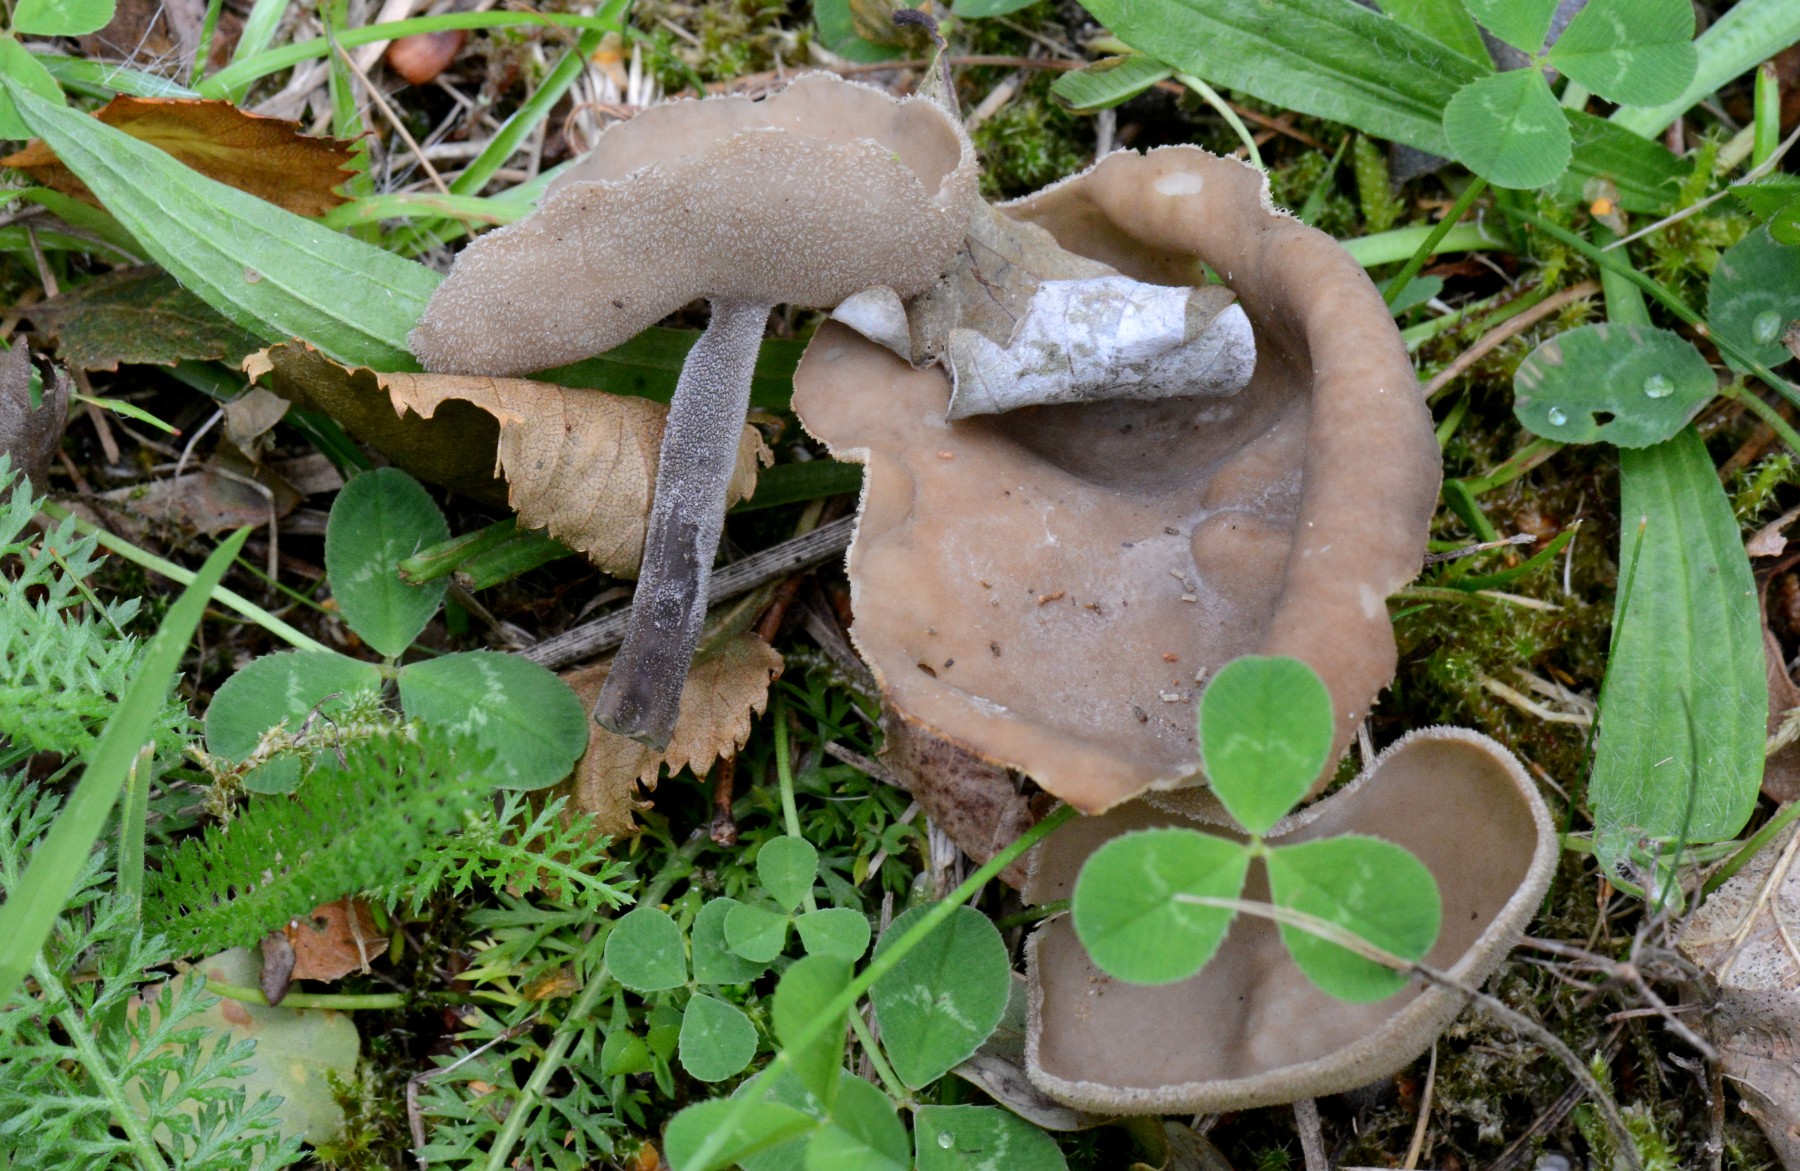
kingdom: Fungi
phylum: Ascomycota
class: Pezizomycetes
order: Pezizales
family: Helvellaceae
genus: Helvella
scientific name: Helvella macropus
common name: højstokket foldhat
